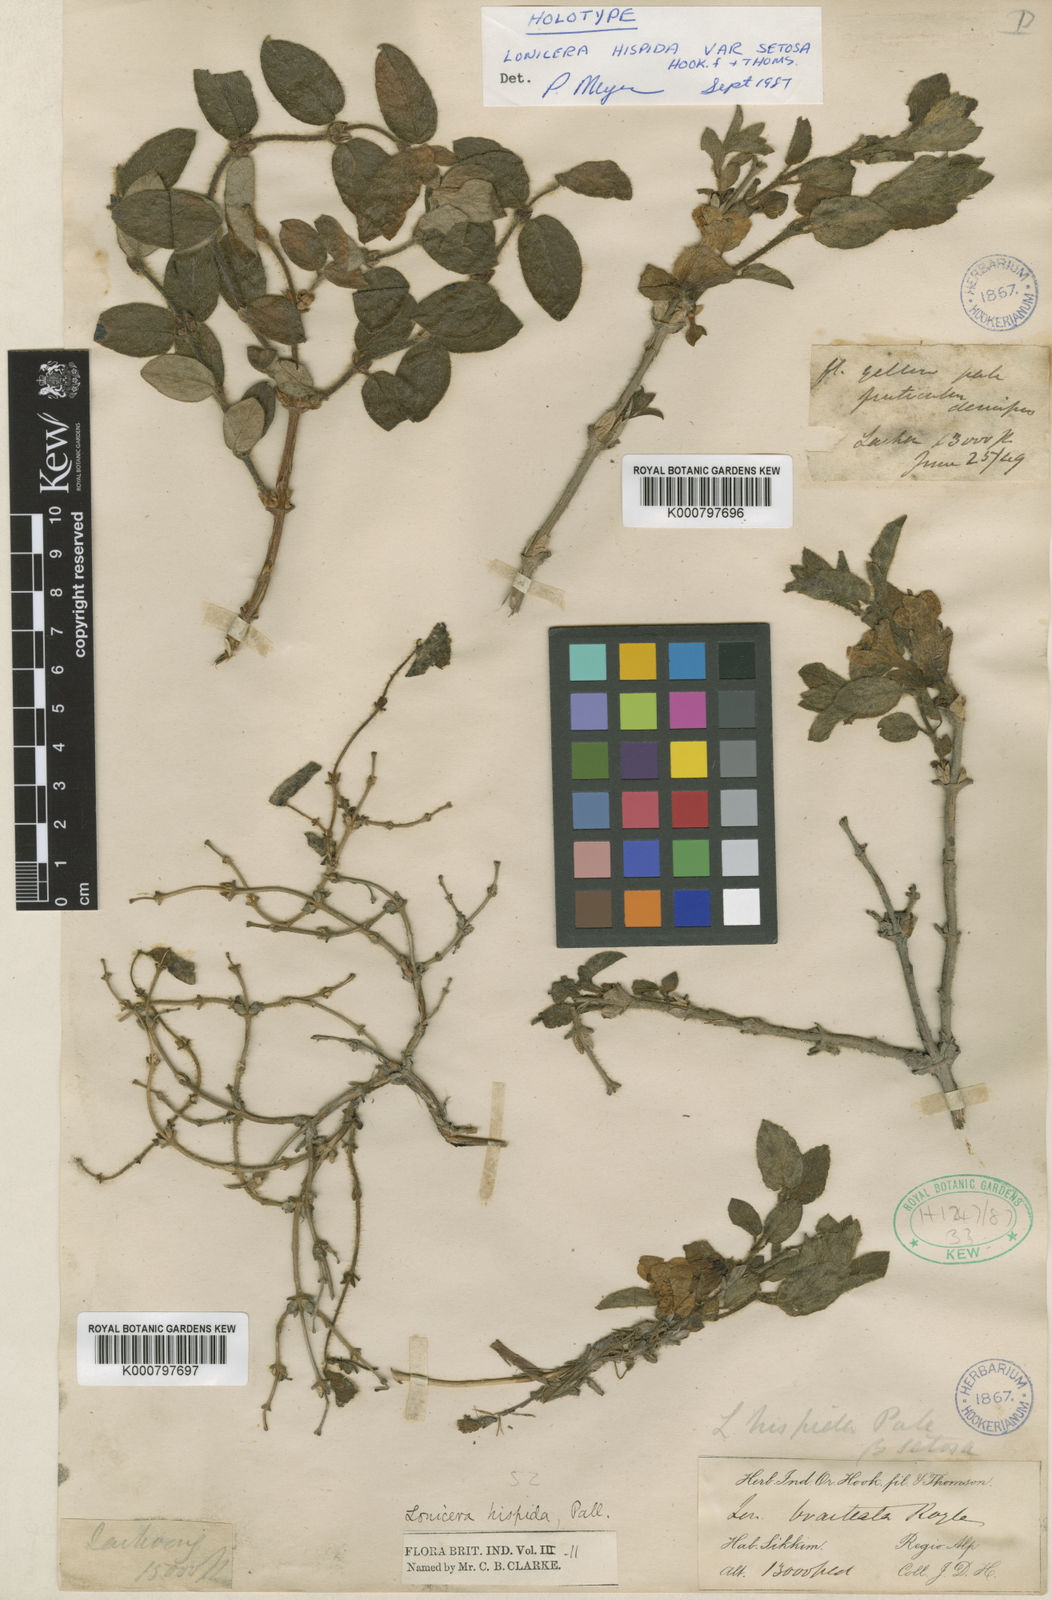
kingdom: Plantae
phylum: Tracheophyta
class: Magnoliopsida
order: Dipsacales
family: Caprifoliaceae
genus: Lonicera
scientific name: Lonicera hispida
